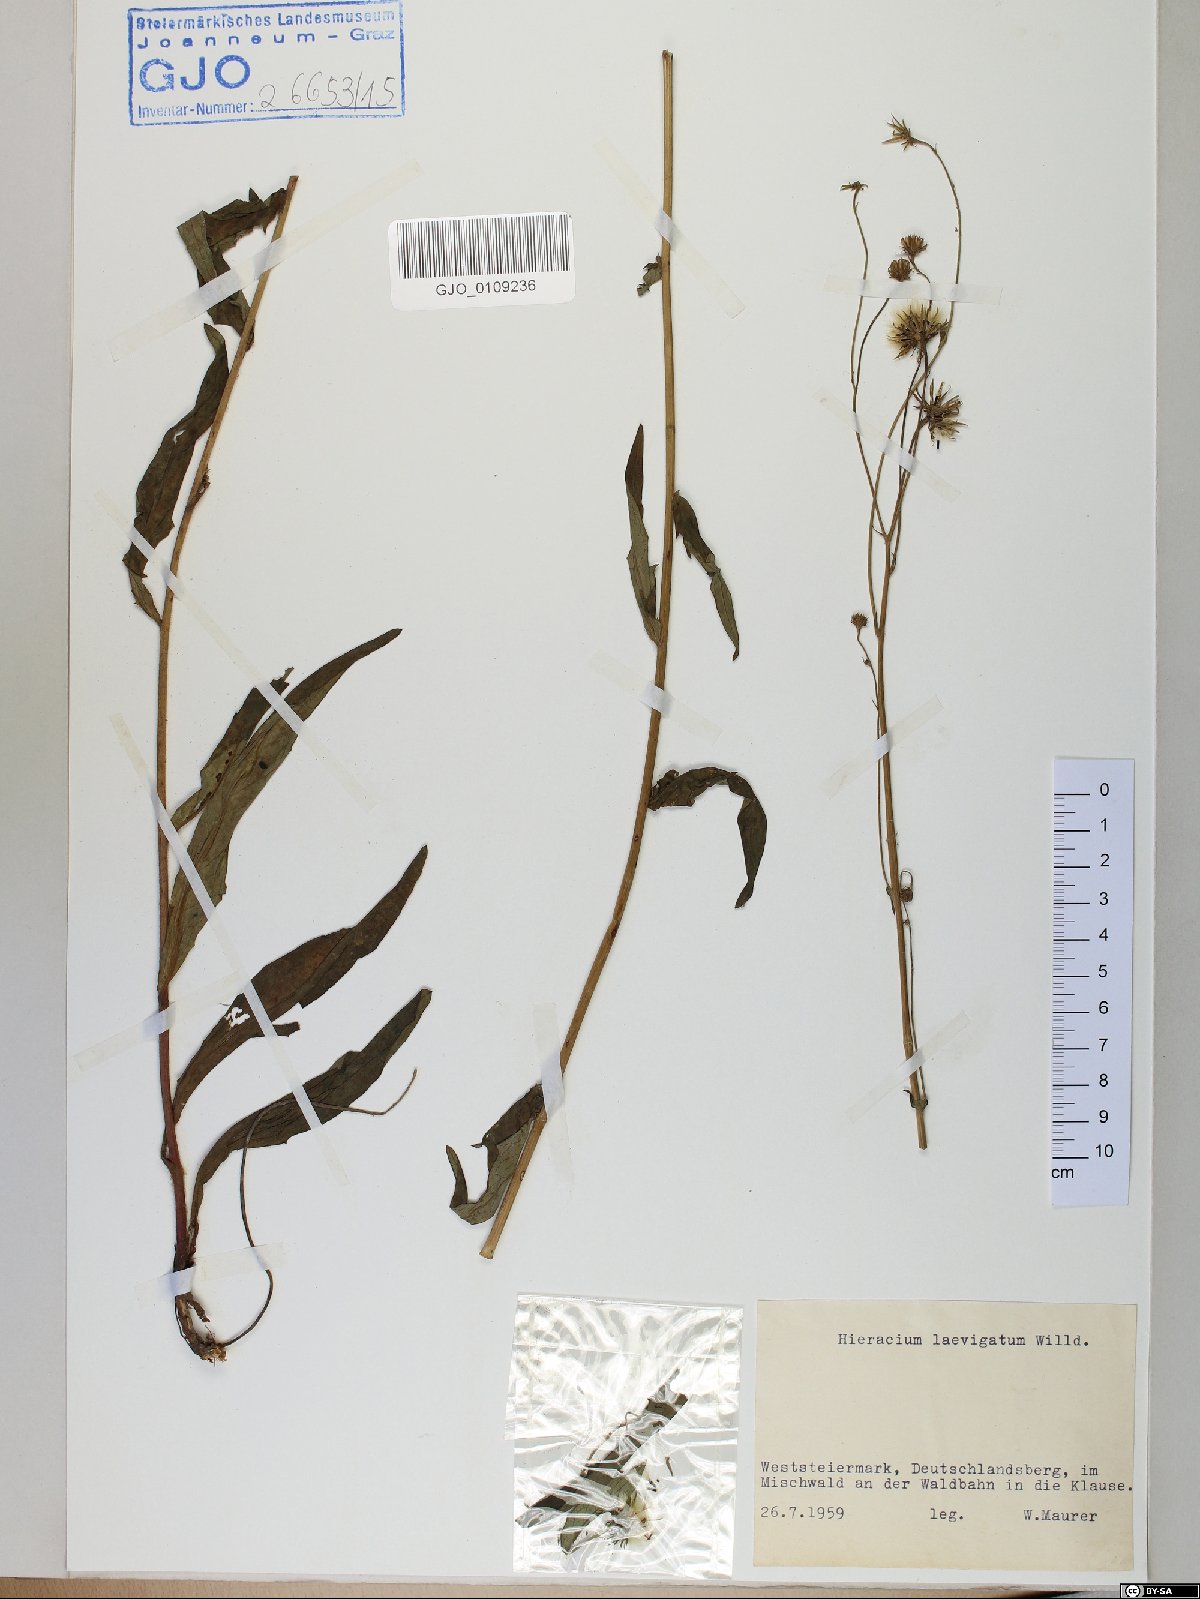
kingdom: Plantae
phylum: Tracheophyta
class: Magnoliopsida
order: Asterales
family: Asteraceae
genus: Hieracium
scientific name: Hieracium laevigatum
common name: Smooth hawkweed
